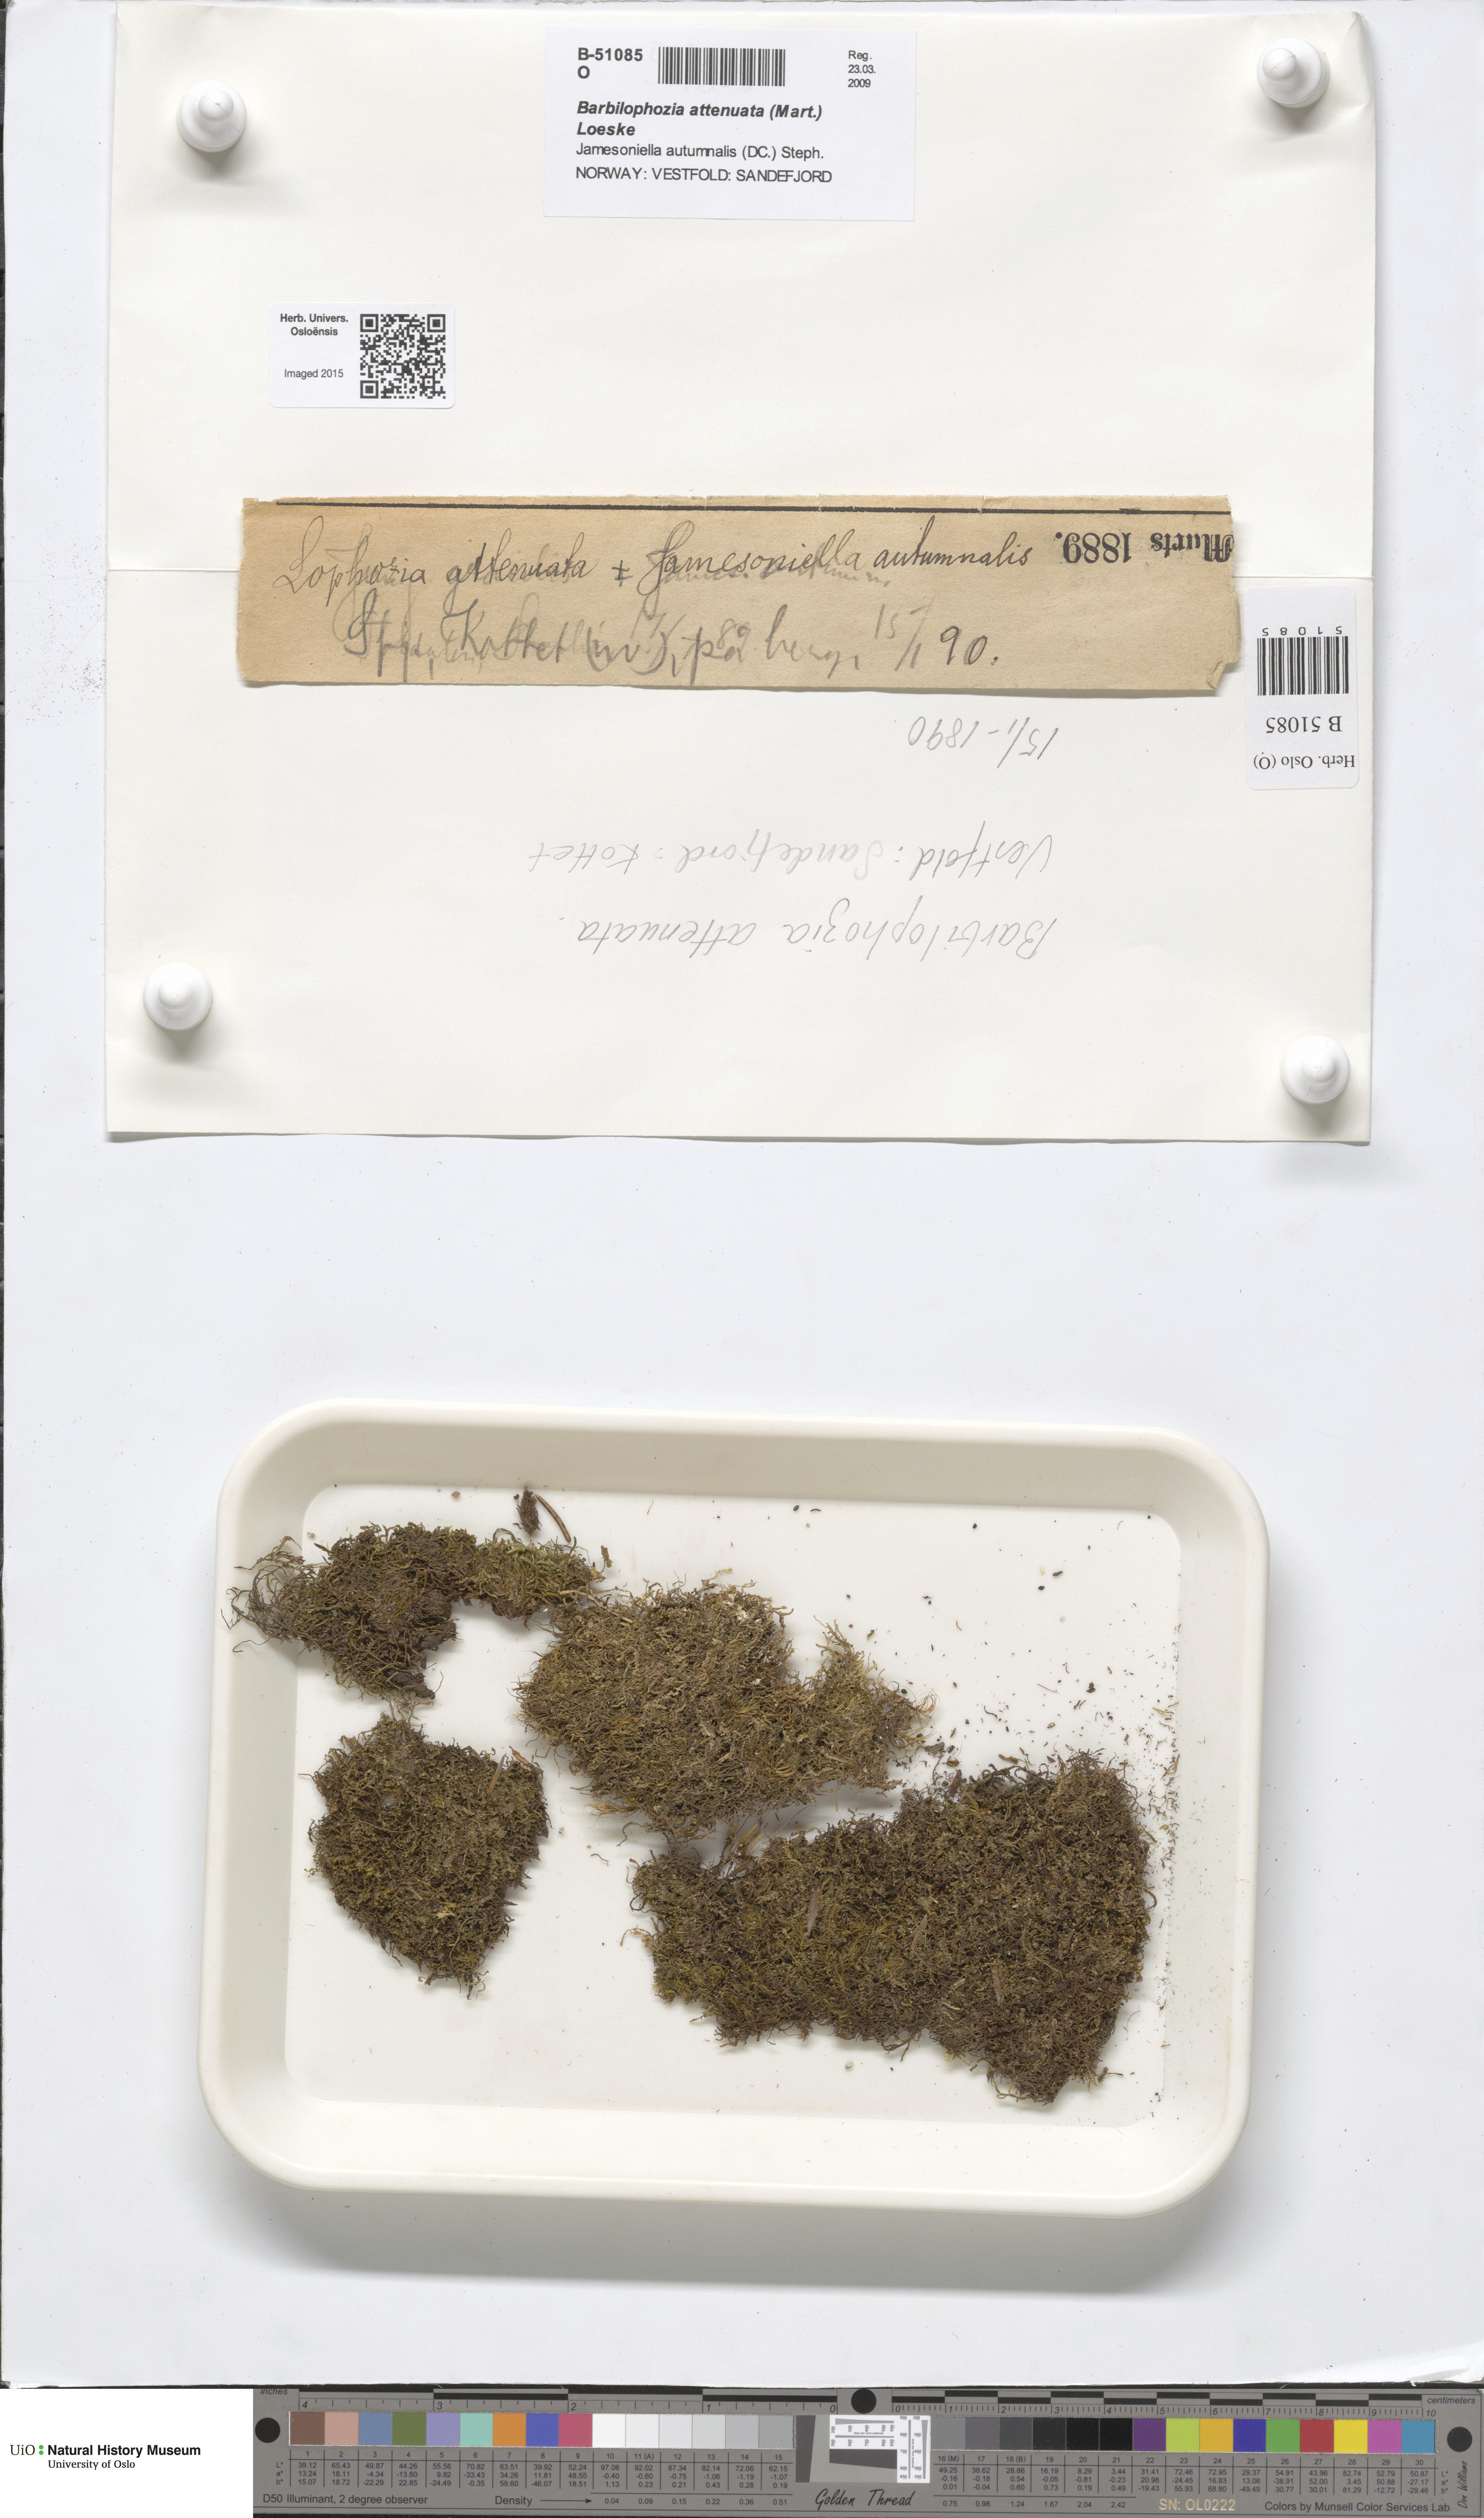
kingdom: Plantae
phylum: Marchantiophyta
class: Jungermanniopsida
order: Jungermanniales
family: Anastrophyllaceae
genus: Neoorthocaulis
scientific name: Neoorthocaulis attenuatus
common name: Trunk pawwort
